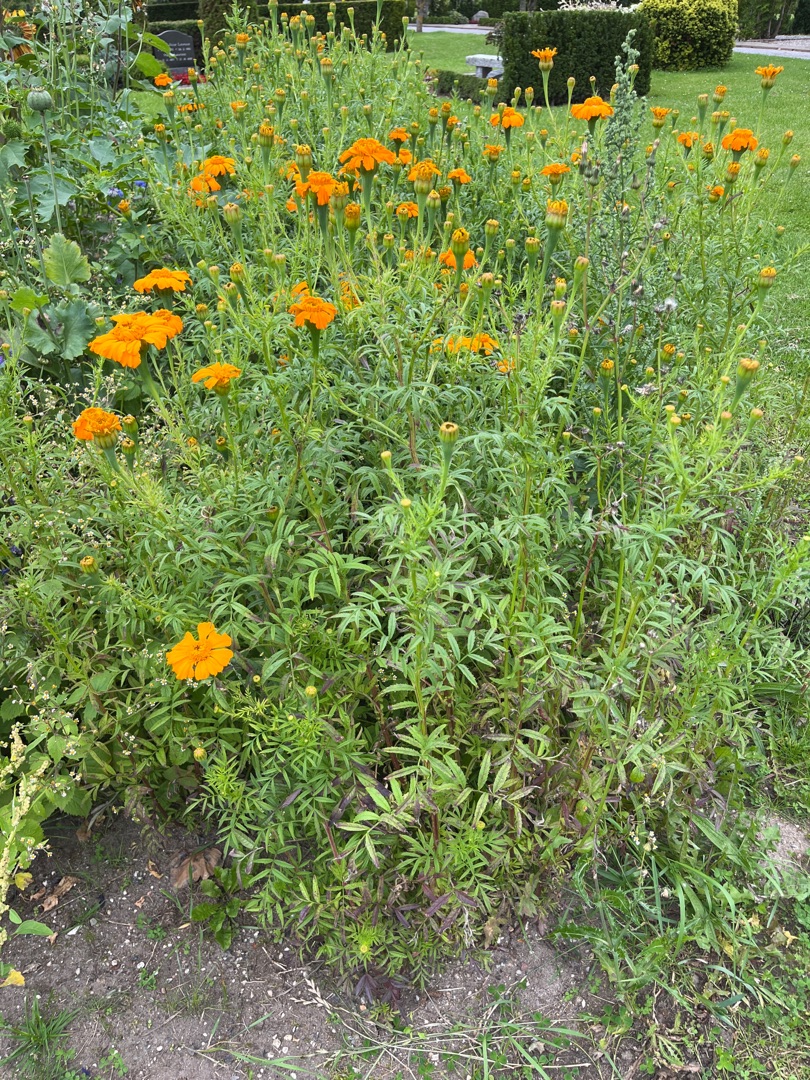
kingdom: Plantae
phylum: Tracheophyta
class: Magnoliopsida
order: Asterales
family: Asteraceae
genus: Tagetes
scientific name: Tagetes erecta
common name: Udspærret fløjlsblomst
